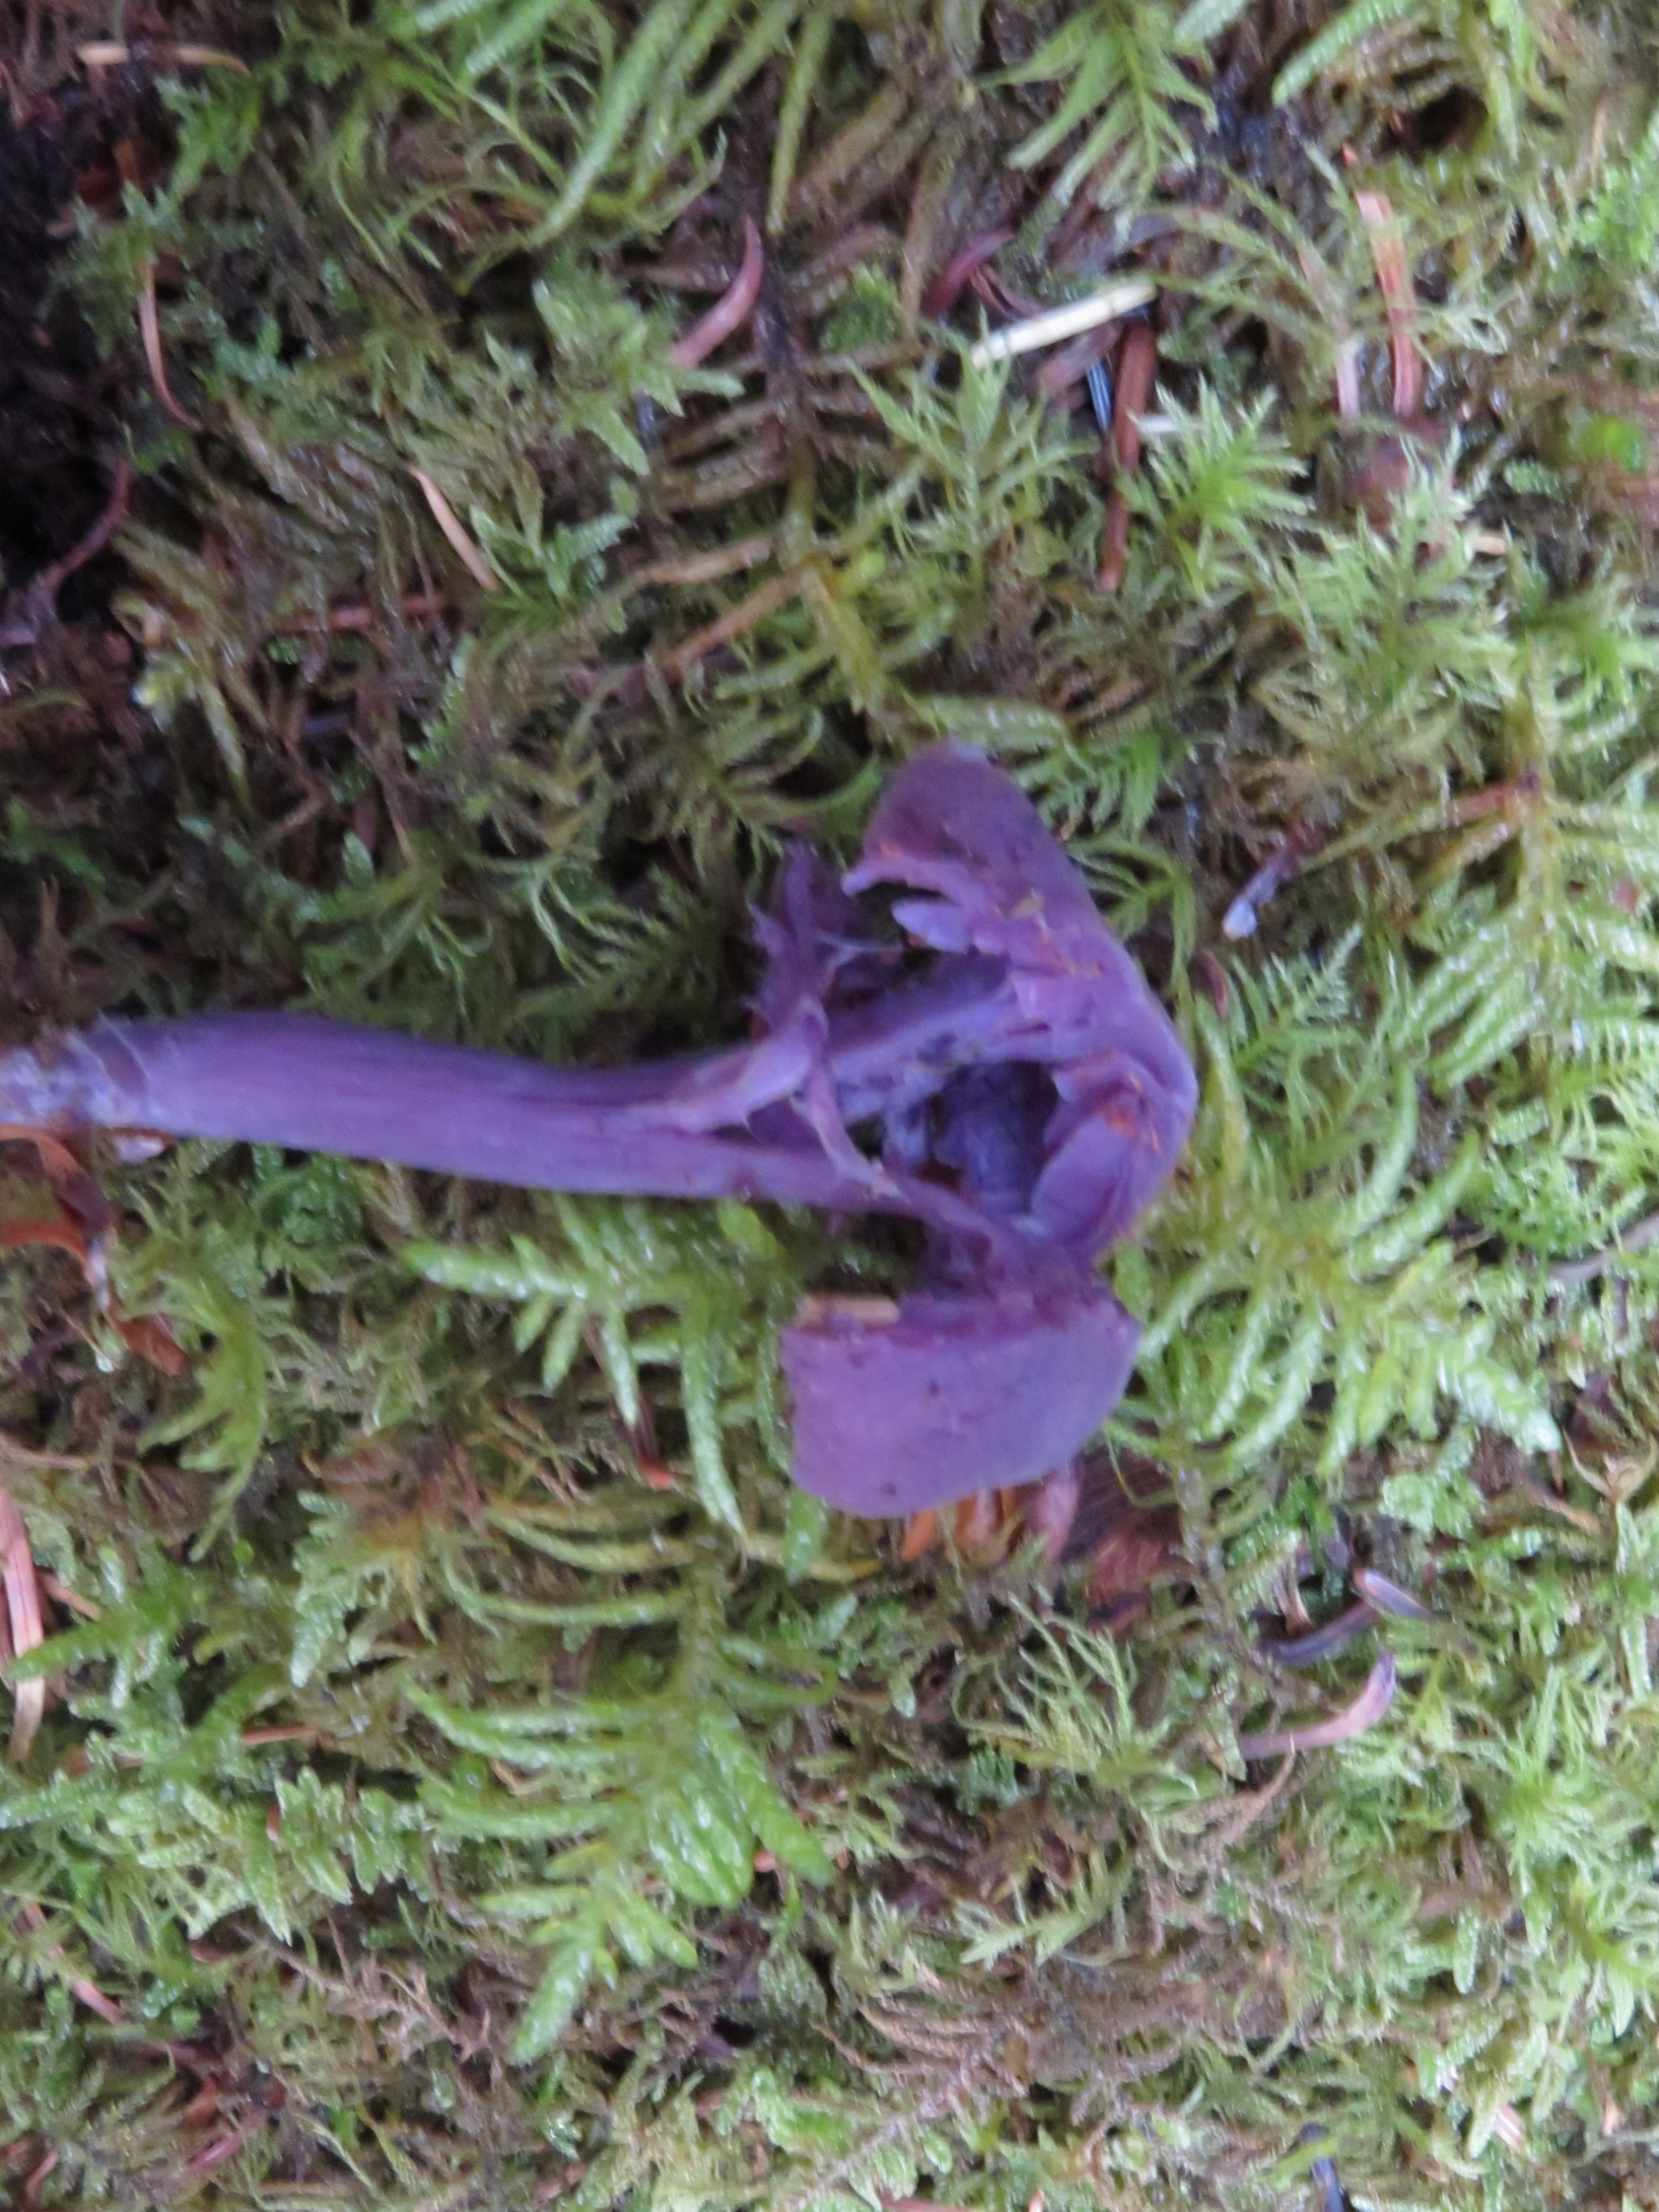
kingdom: Fungi
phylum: Basidiomycota
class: Agaricomycetes
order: Agaricales
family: Hydnangiaceae
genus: Laccaria
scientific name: Laccaria amethystina
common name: Violet ametysthat
